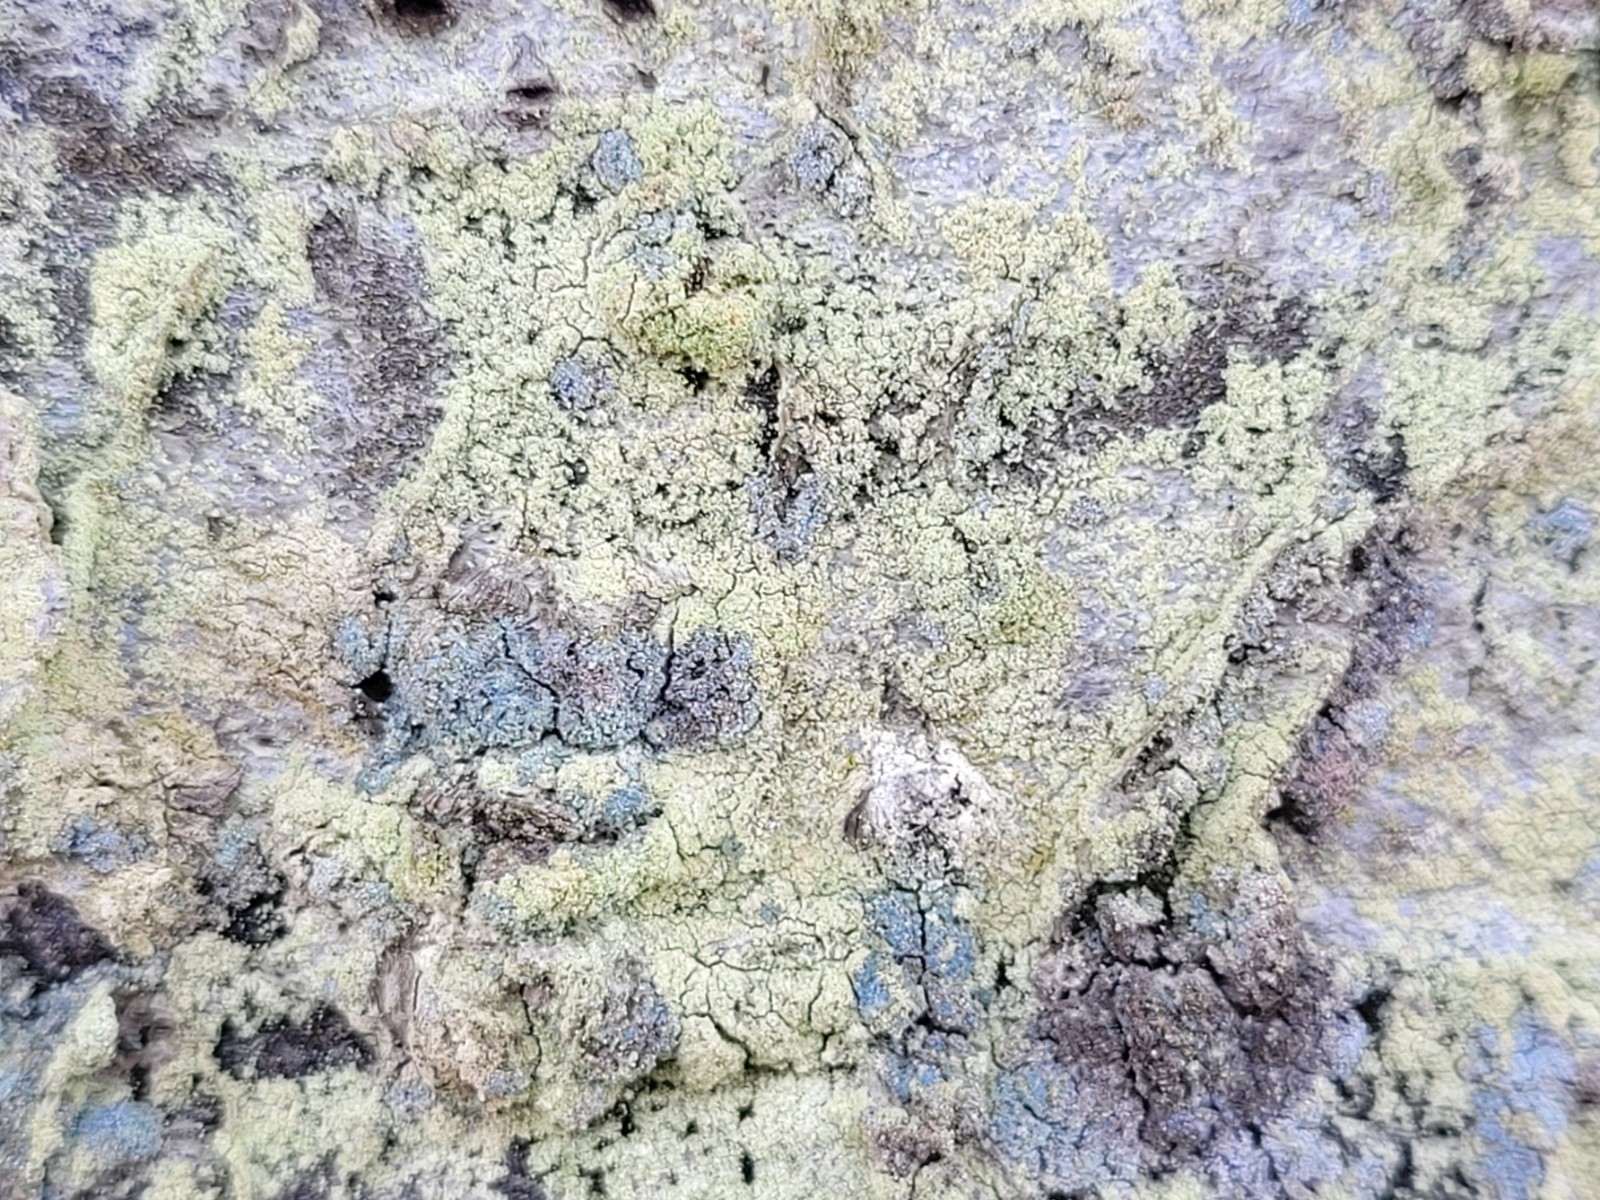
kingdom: Fungi
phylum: Ascomycota
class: Lecanoromycetes
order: Lecanorales
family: Lecanoraceae
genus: Lecanora
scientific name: Lecanora expallens
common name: bleggul kantskivelav
